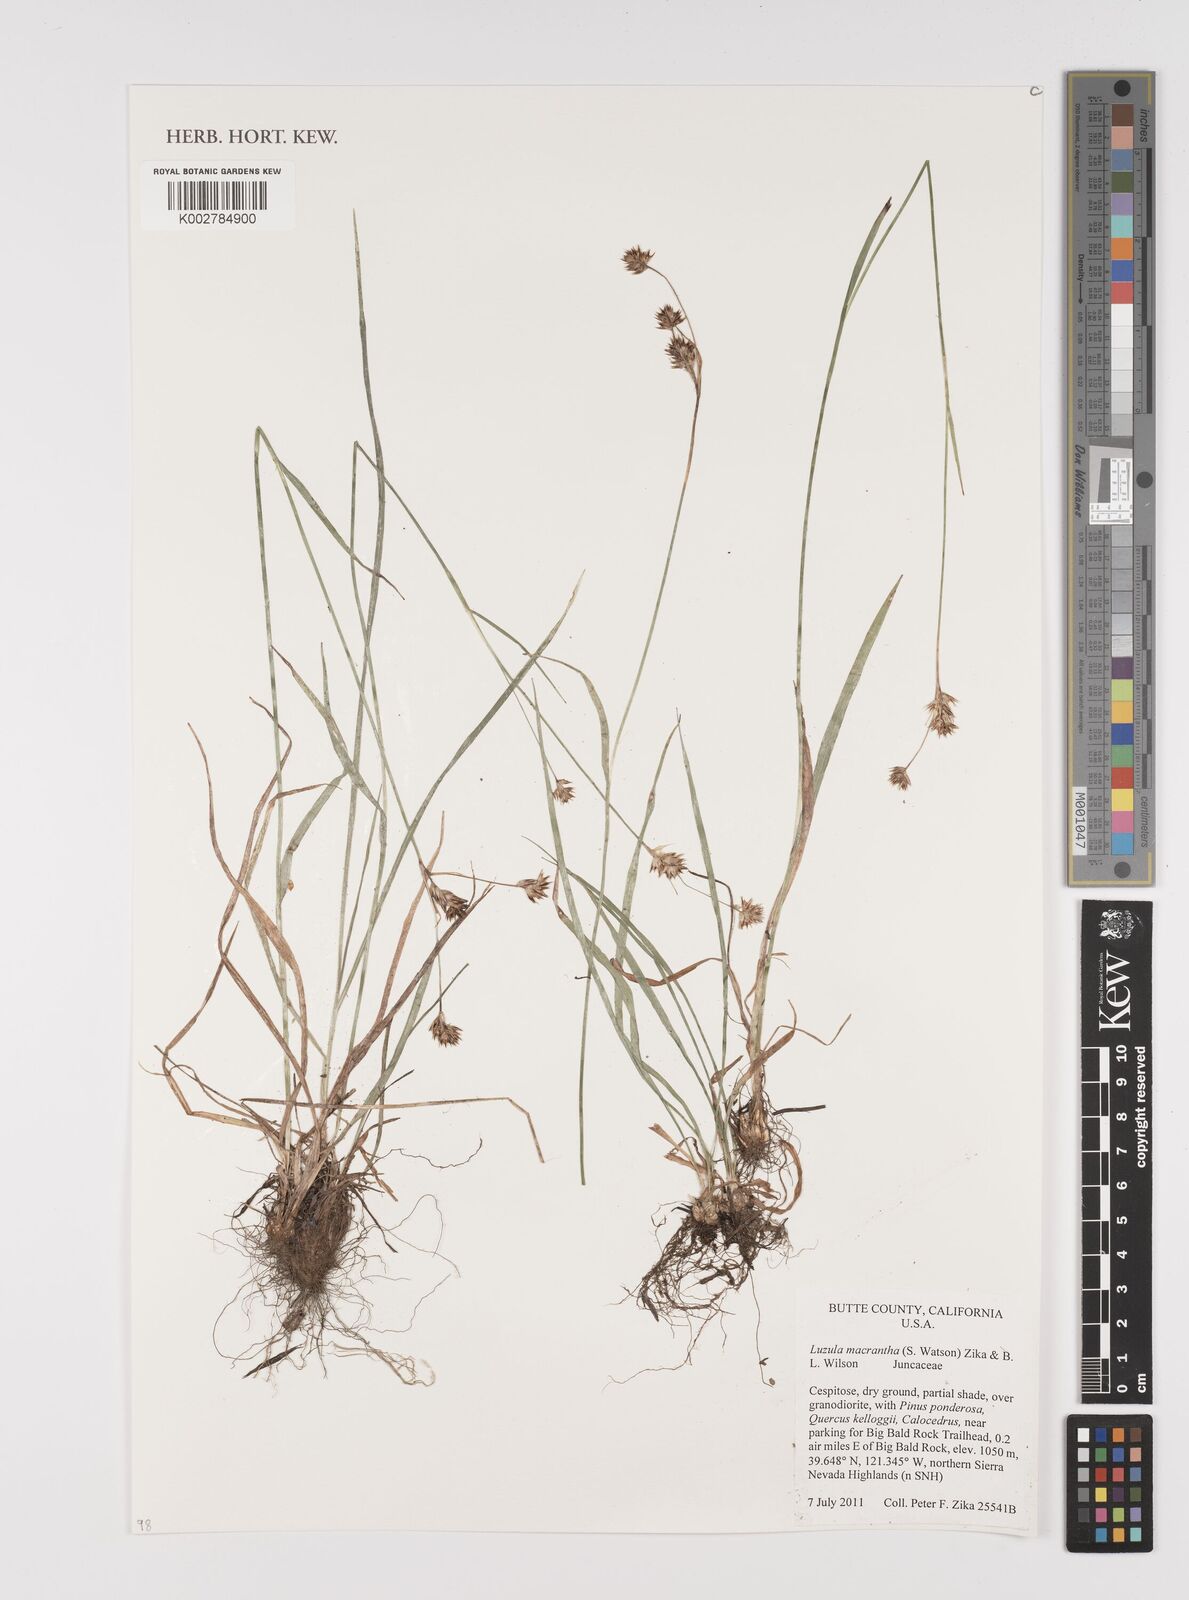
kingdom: Plantae
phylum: Tracheophyta
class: Liliopsida
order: Poales
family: Juncaceae
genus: Luzula
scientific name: Luzula macrantha
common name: Large-anthered woodrush
